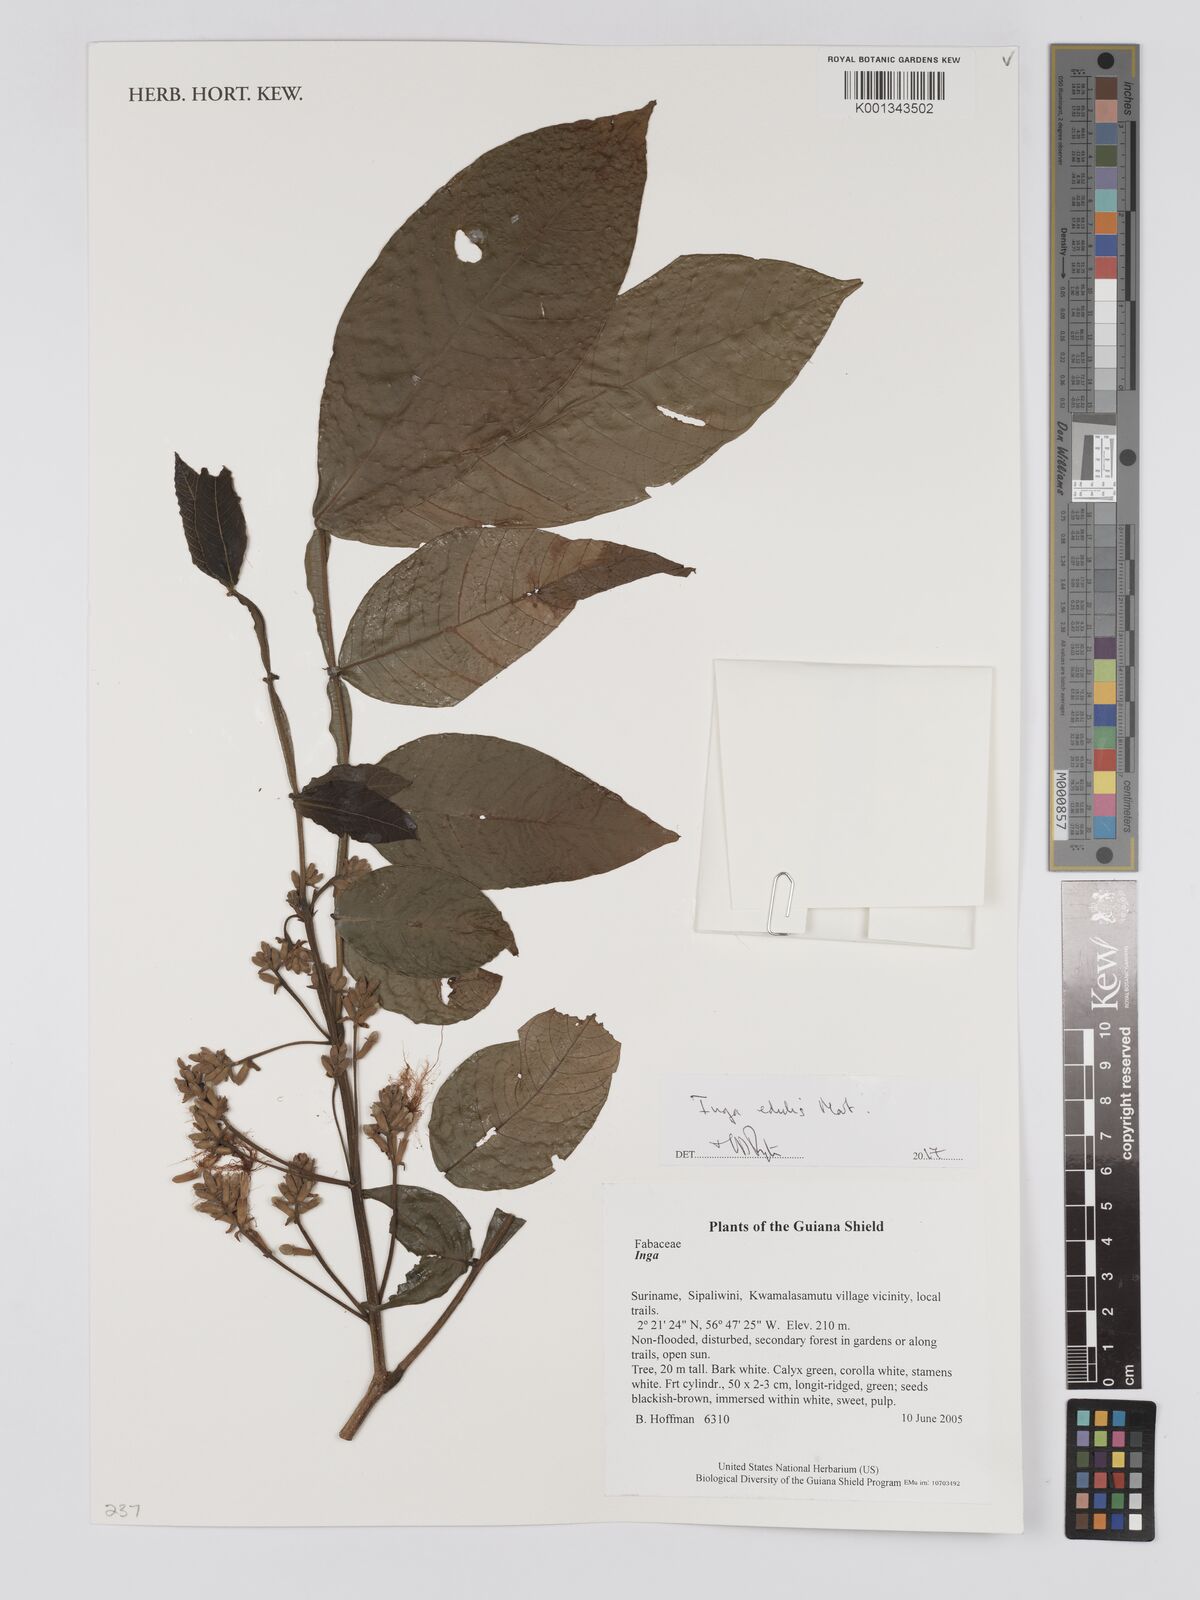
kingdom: Plantae
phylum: Tracheophyta
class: Magnoliopsida
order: Fabales
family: Fabaceae
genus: Inga
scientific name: Inga edulis
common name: Ice cream bean
